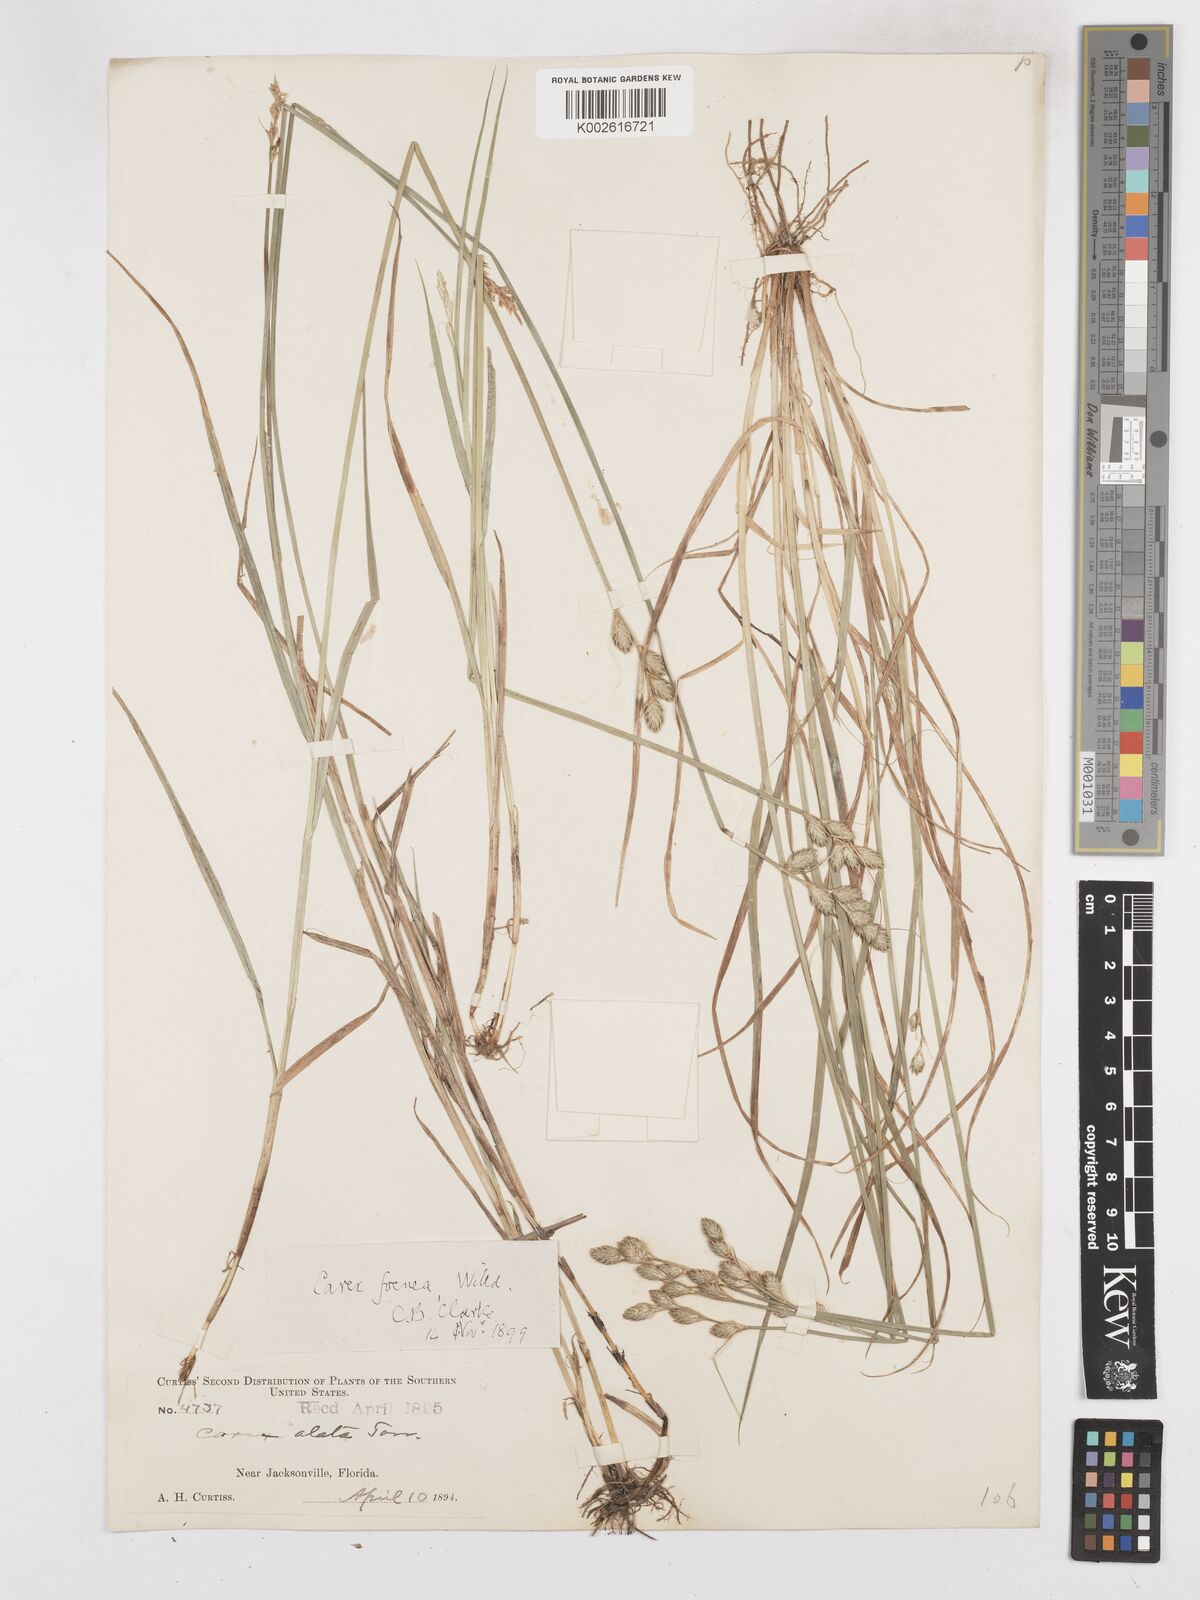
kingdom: Plantae
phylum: Tracheophyta
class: Liliopsida
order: Poales
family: Cyperaceae
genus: Carex
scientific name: Carex argyrantha
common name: Silvery-flowered sedge
